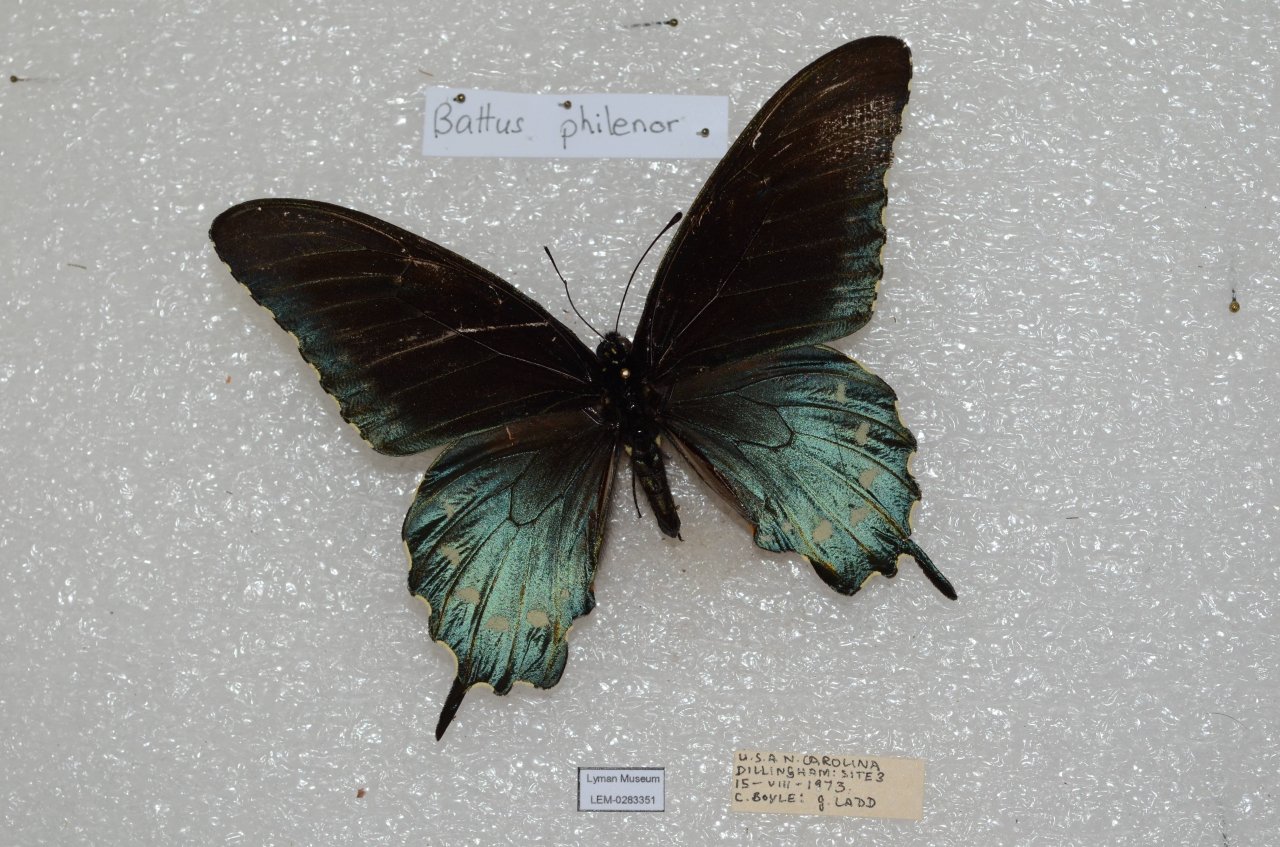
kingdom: Animalia
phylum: Arthropoda
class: Insecta
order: Lepidoptera
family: Papilionidae
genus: Battus
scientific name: Battus philenor
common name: Pipevine Swallowtail
